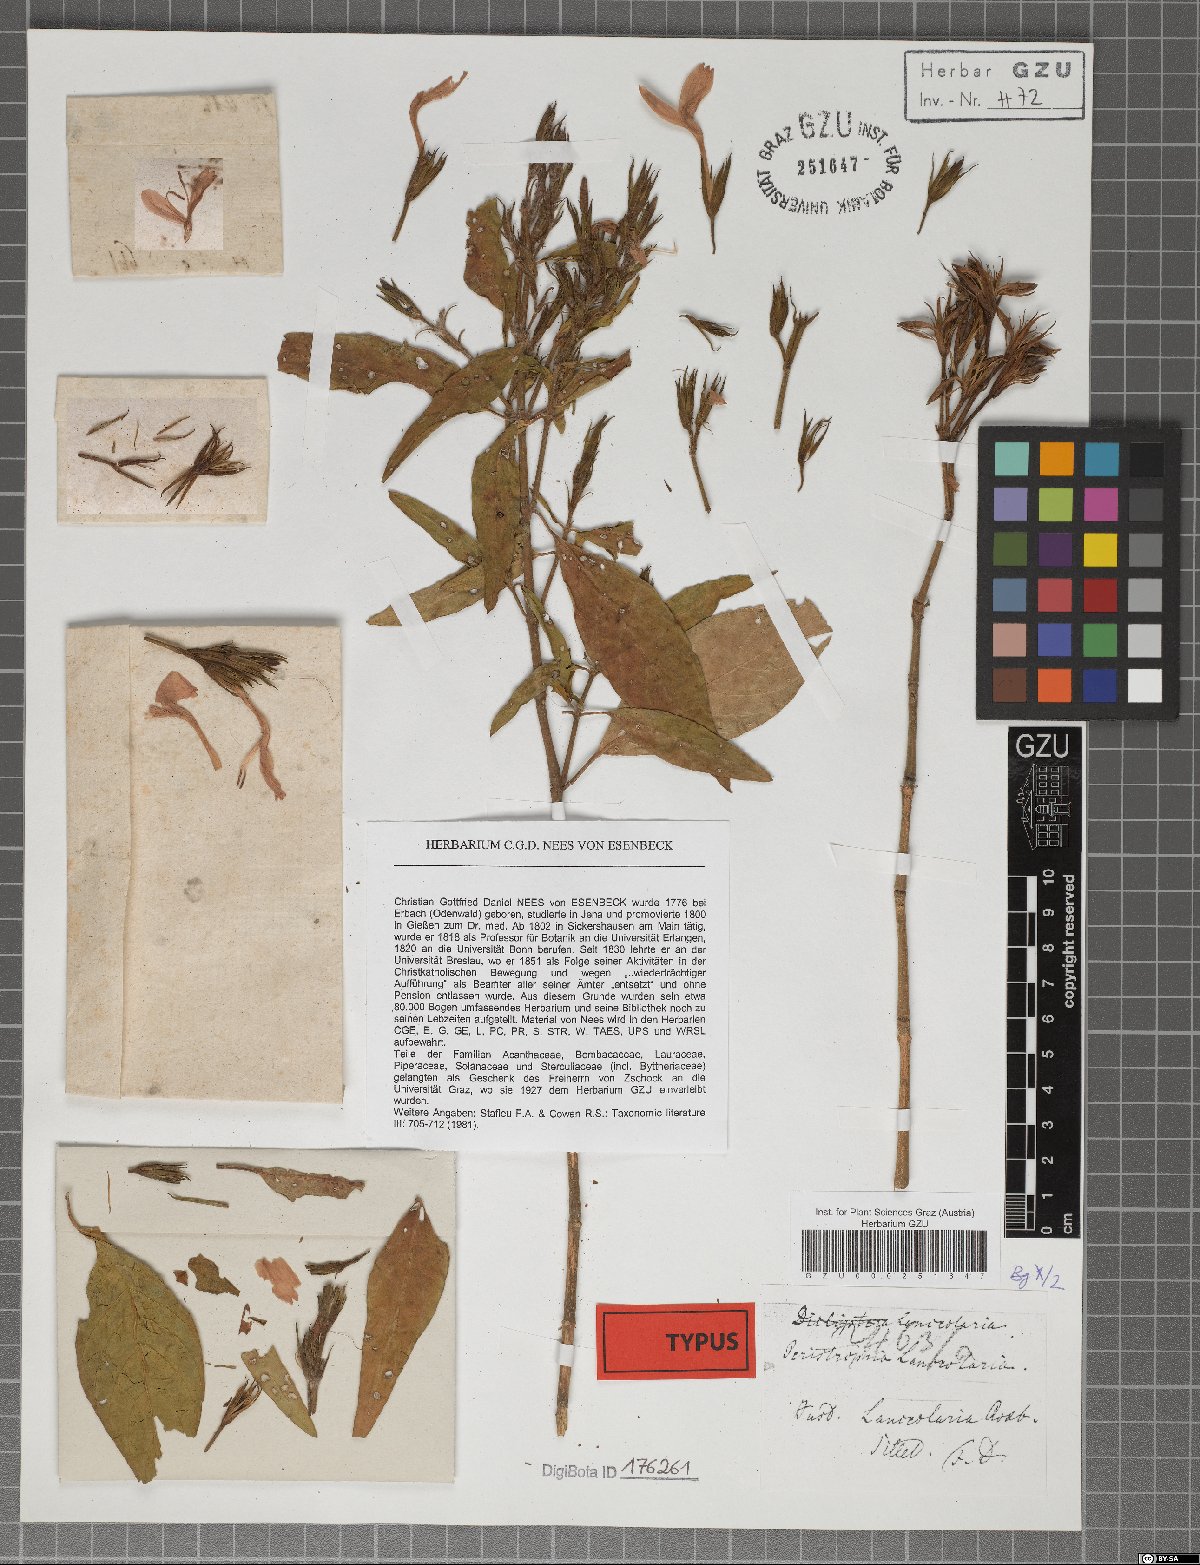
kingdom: Plantae
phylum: Tracheophyta
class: Magnoliopsida
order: Lamiales
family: Acanthaceae
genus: Dicliptera
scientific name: Dicliptera lanceolaria
